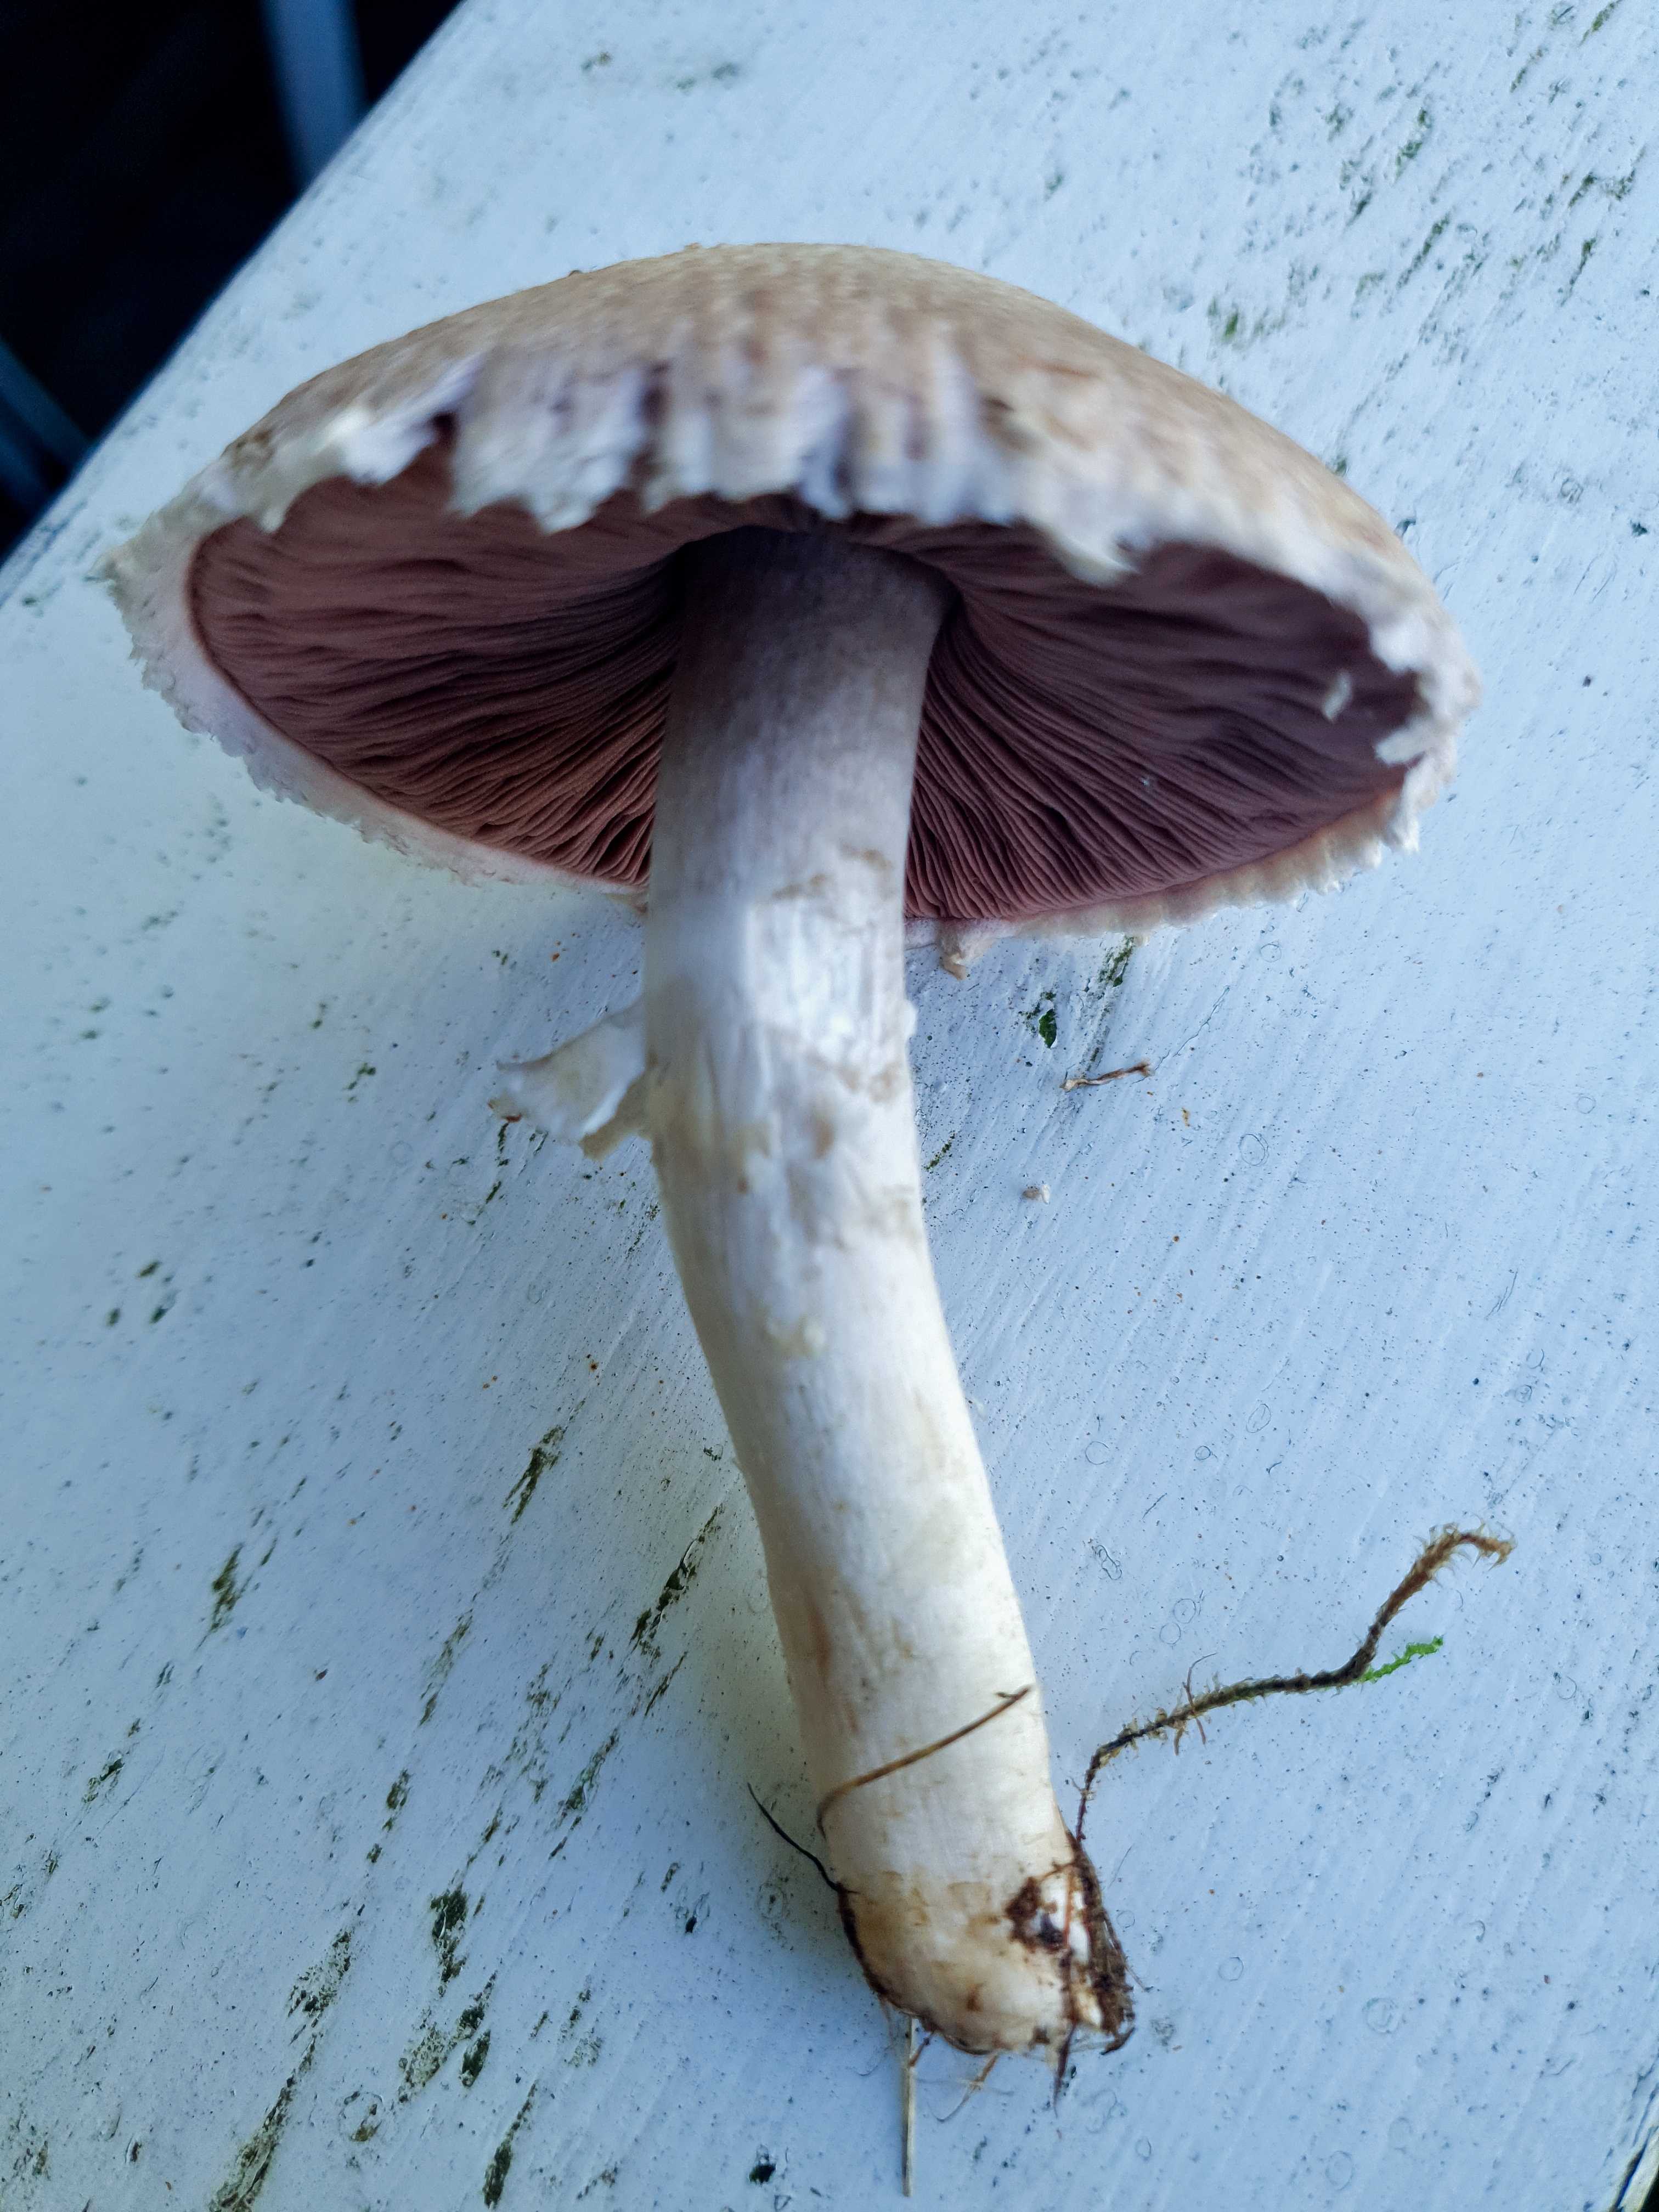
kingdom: Fungi
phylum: Basidiomycota
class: Agaricomycetes
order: Agaricales
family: Agaricaceae
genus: Agaricus
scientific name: Agaricus
